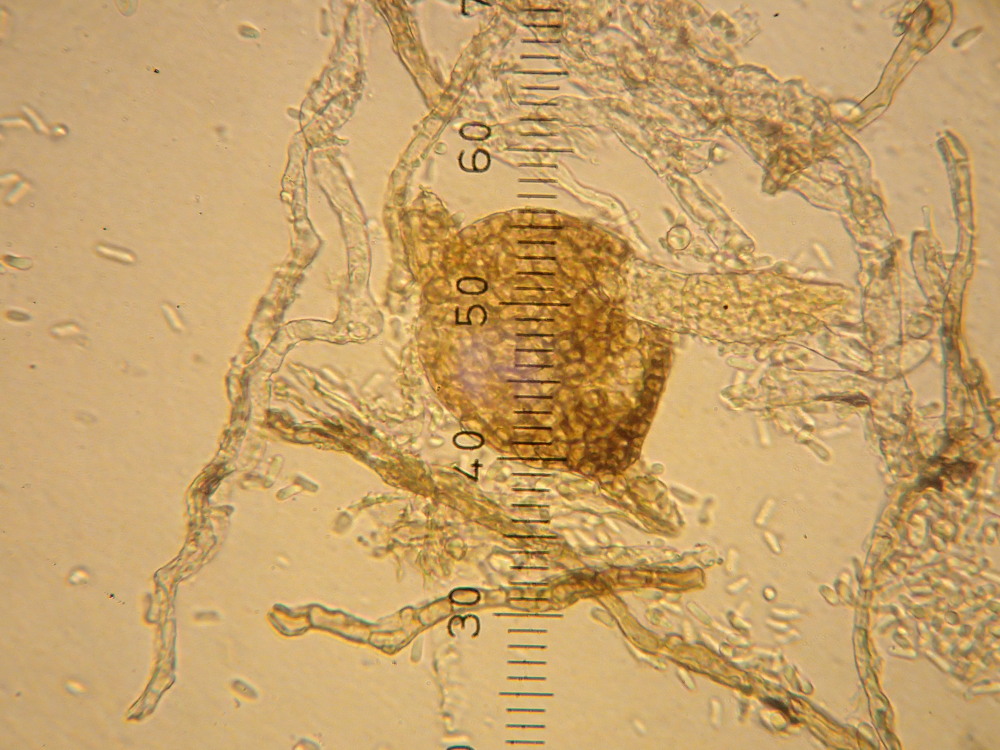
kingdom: Fungi
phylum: Ascomycota
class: Dothideomycetes
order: Pleosporales
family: Phaeosphaeriaceae
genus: Ampelomyces
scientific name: Ampelomyces quisqualis
